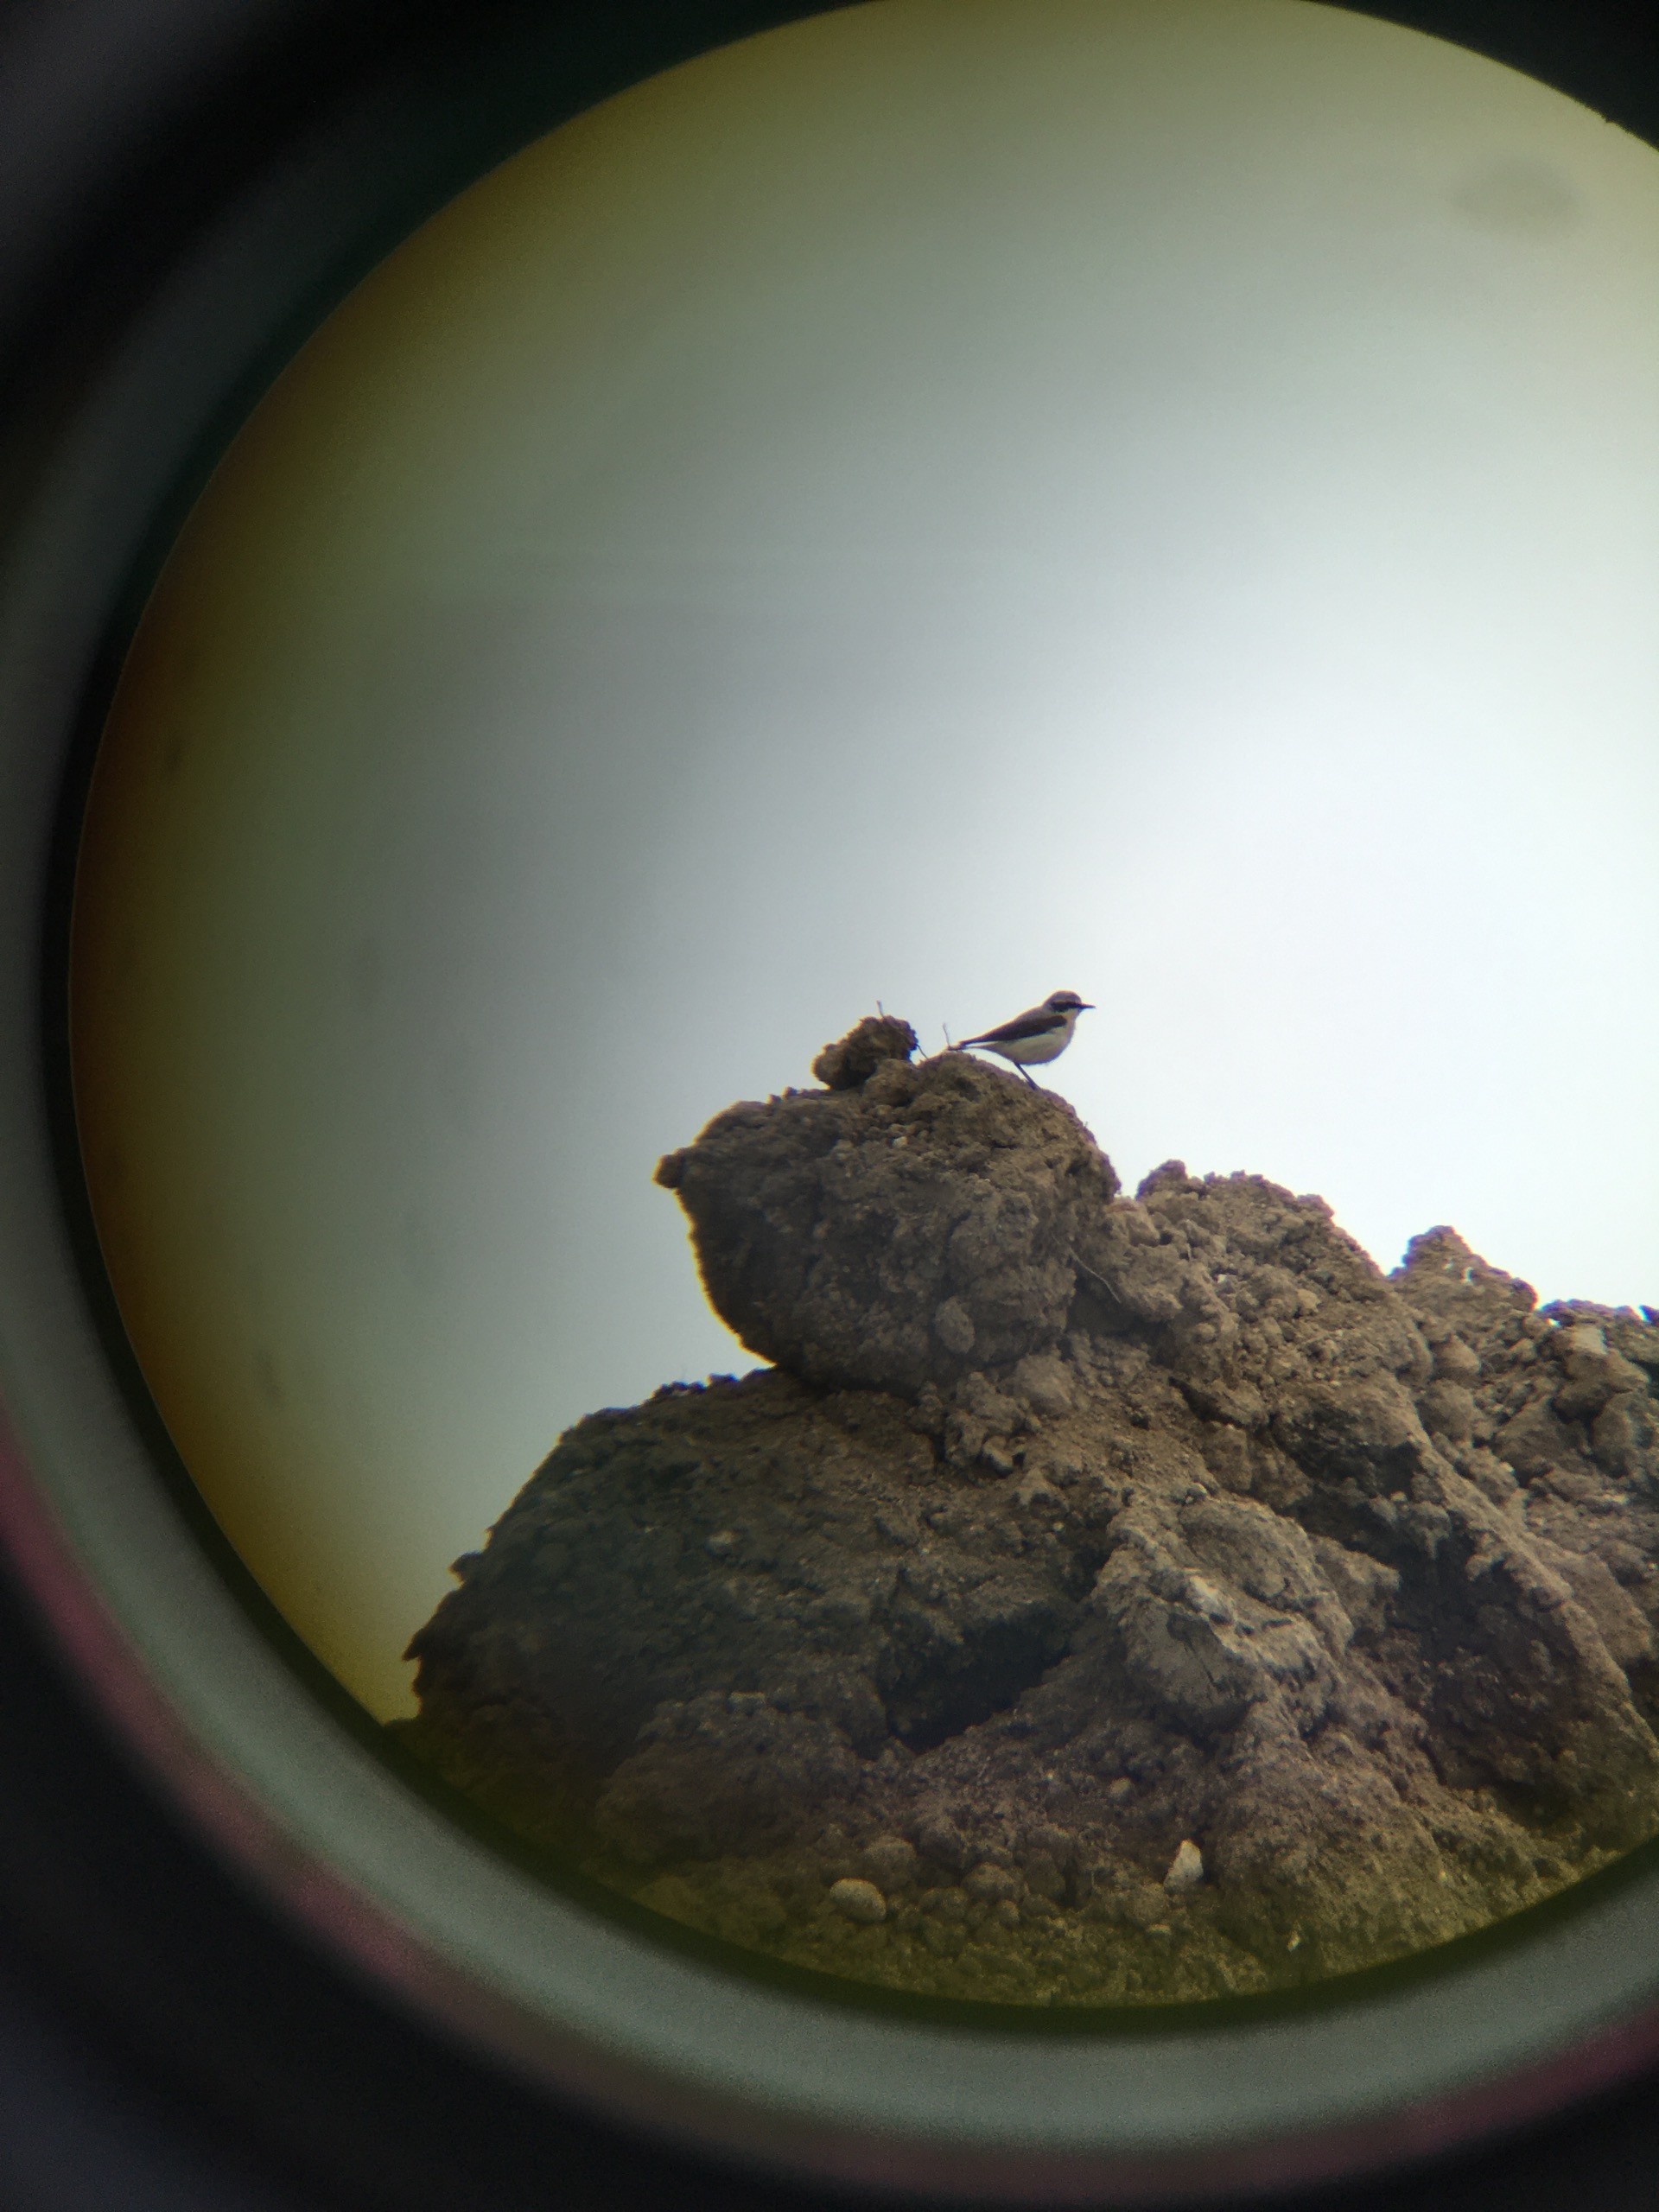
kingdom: Animalia
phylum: Chordata
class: Aves
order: Passeriformes
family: Muscicapidae
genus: Oenanthe
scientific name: Oenanthe oenanthe
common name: Stenpikker
